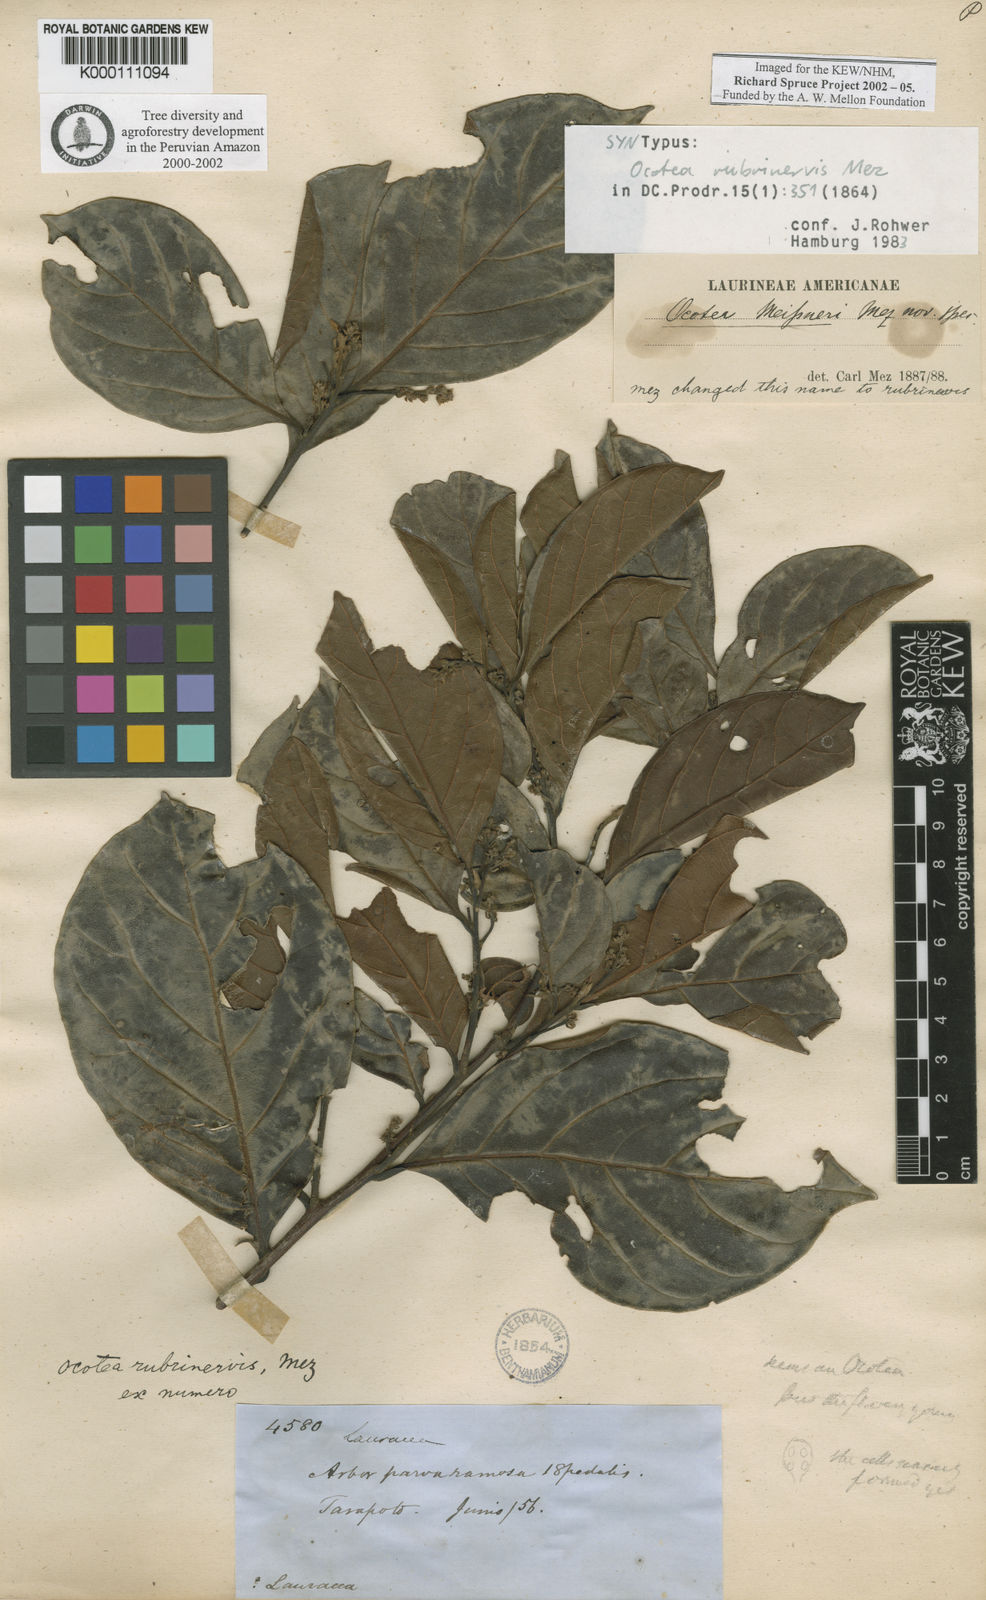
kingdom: Plantae
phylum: Tracheophyta
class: Magnoliopsida
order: Laurales
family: Lauraceae
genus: Ocotea
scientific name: Ocotea rubrinervis
